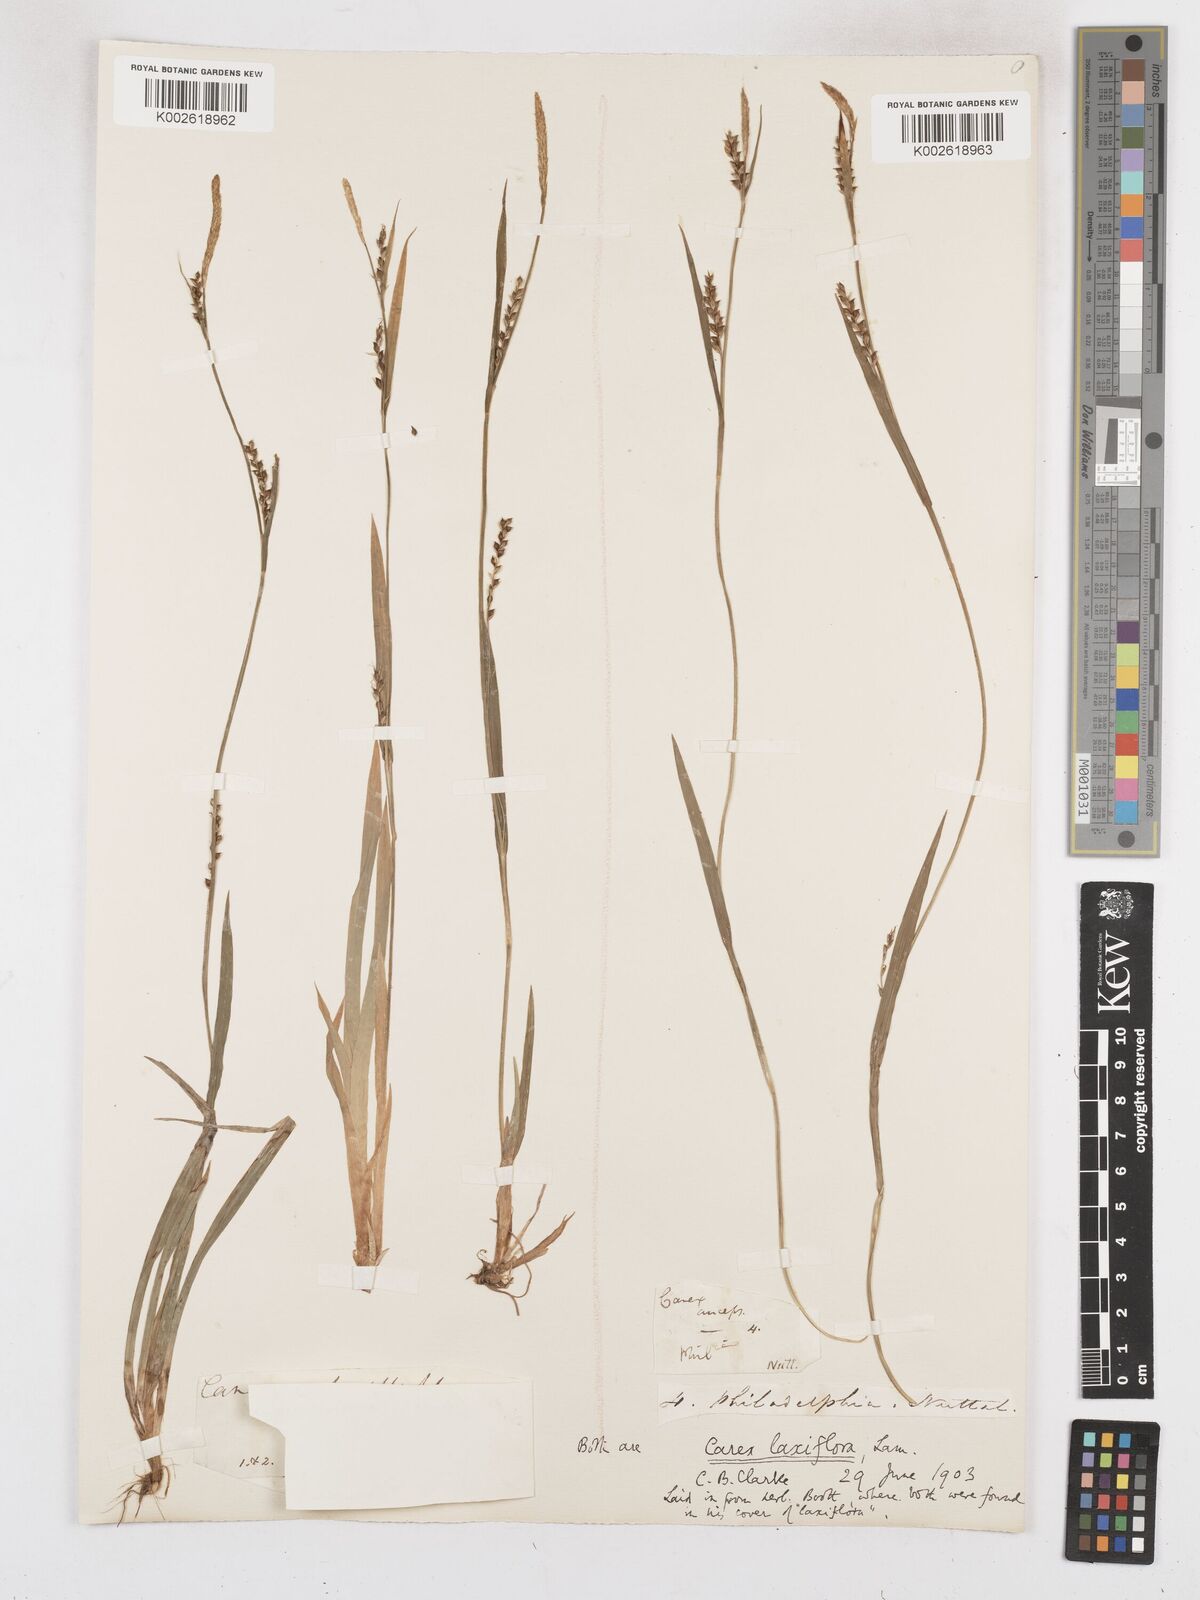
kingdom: Plantae
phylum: Tracheophyta
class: Liliopsida
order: Poales
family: Cyperaceae
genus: Carex
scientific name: Carex laxiflora
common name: Beech wood sedge
